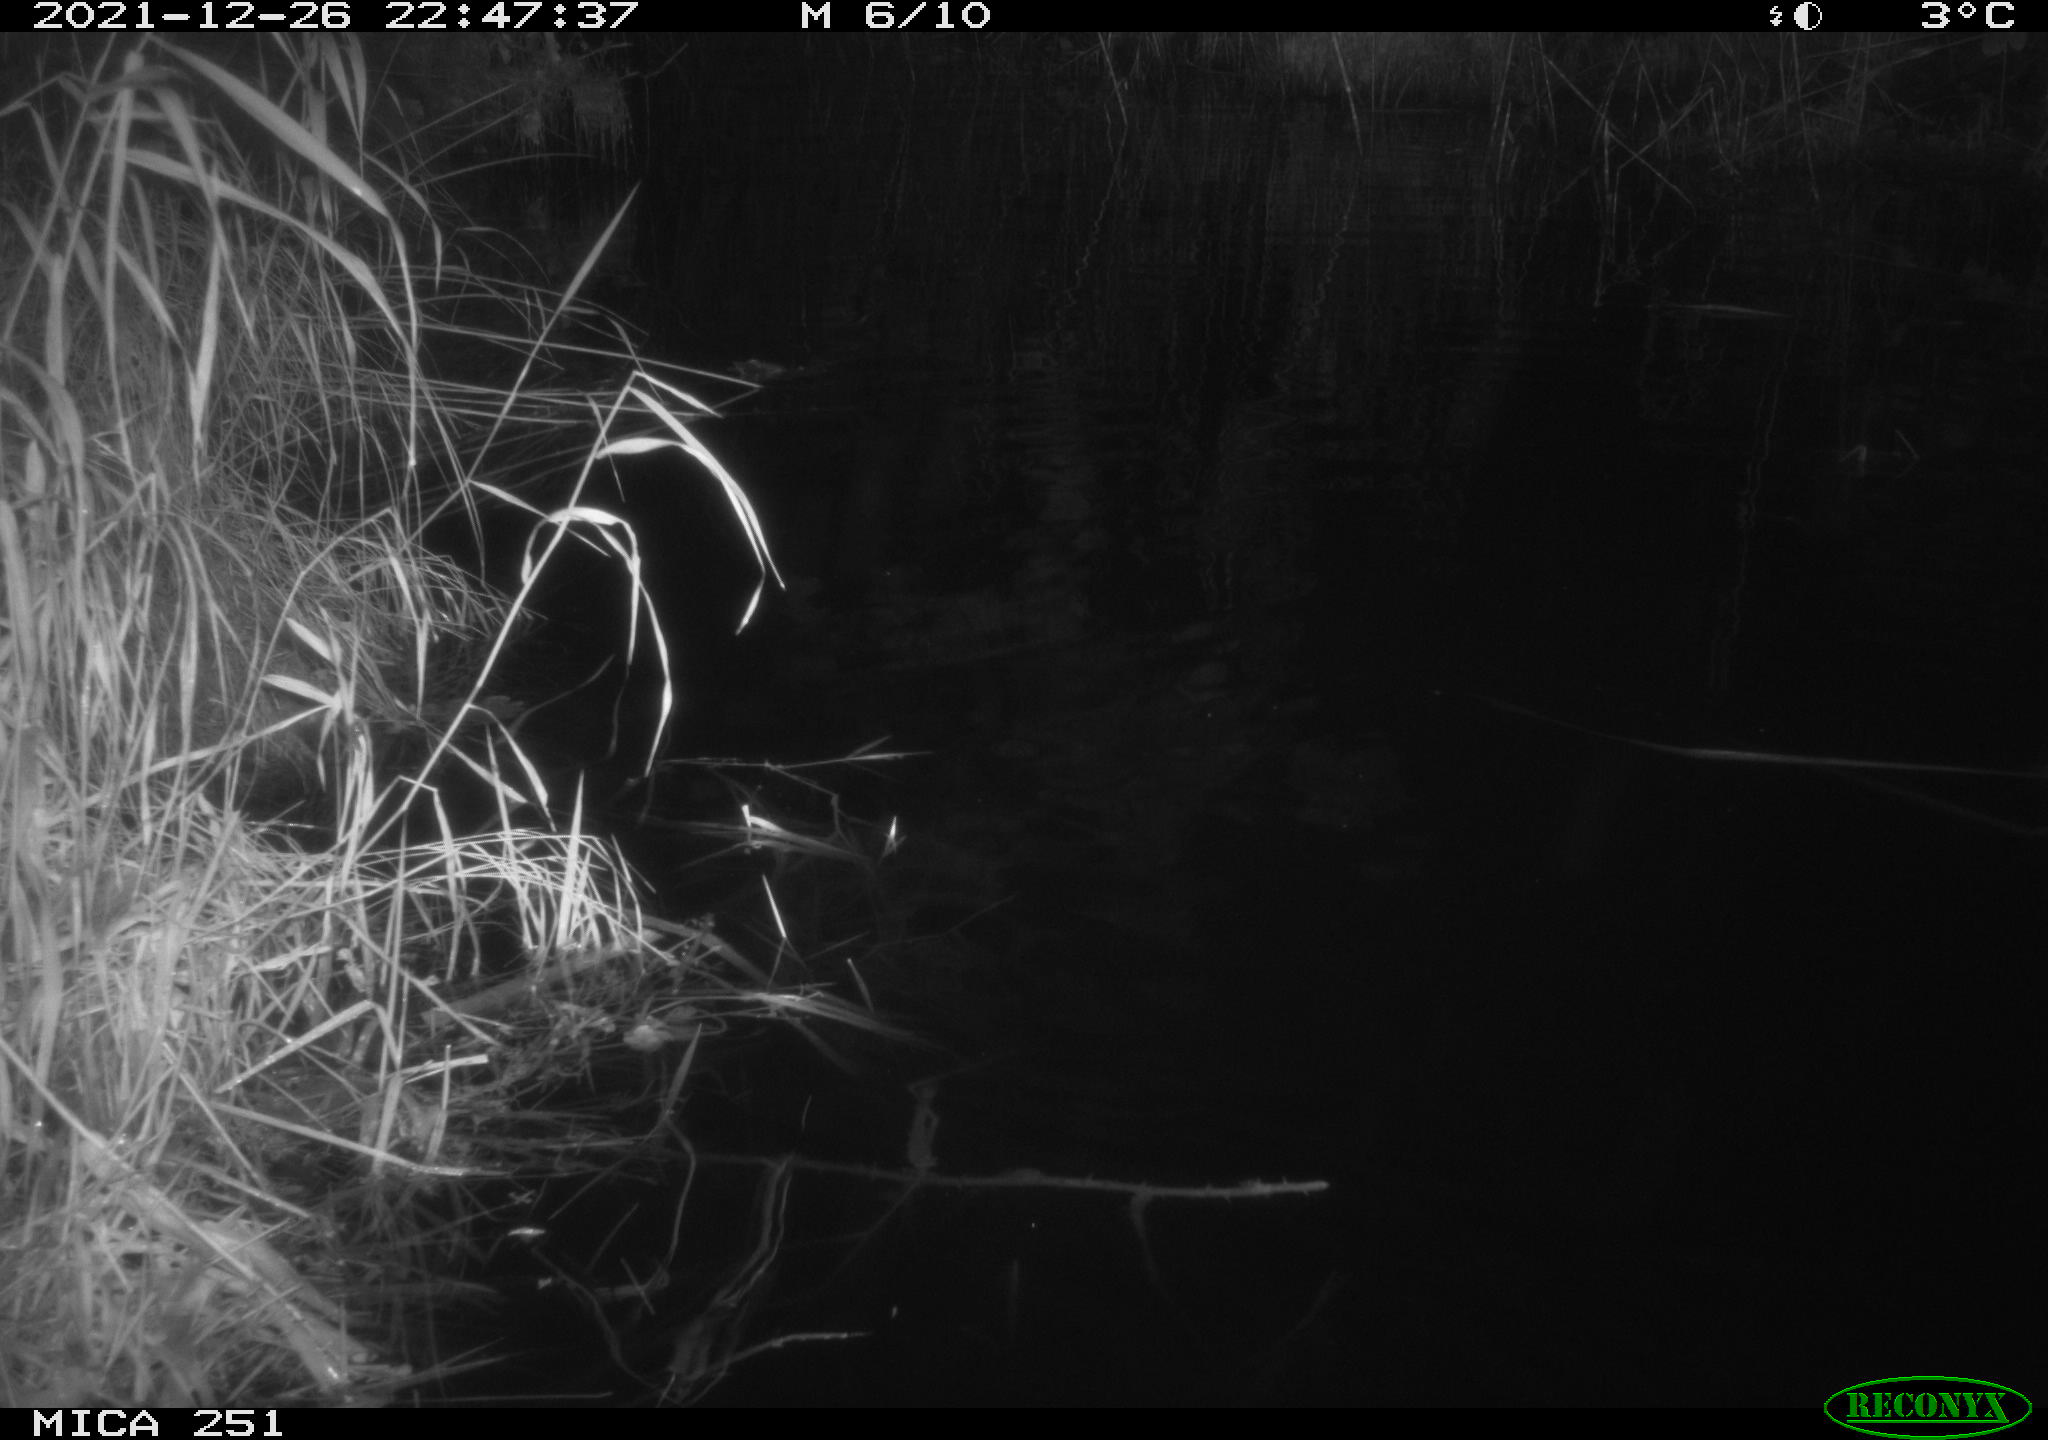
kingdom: Animalia
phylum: Chordata
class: Aves
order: Anseriformes
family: Anatidae
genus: Anas
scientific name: Anas crecca
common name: Eurasian teal
